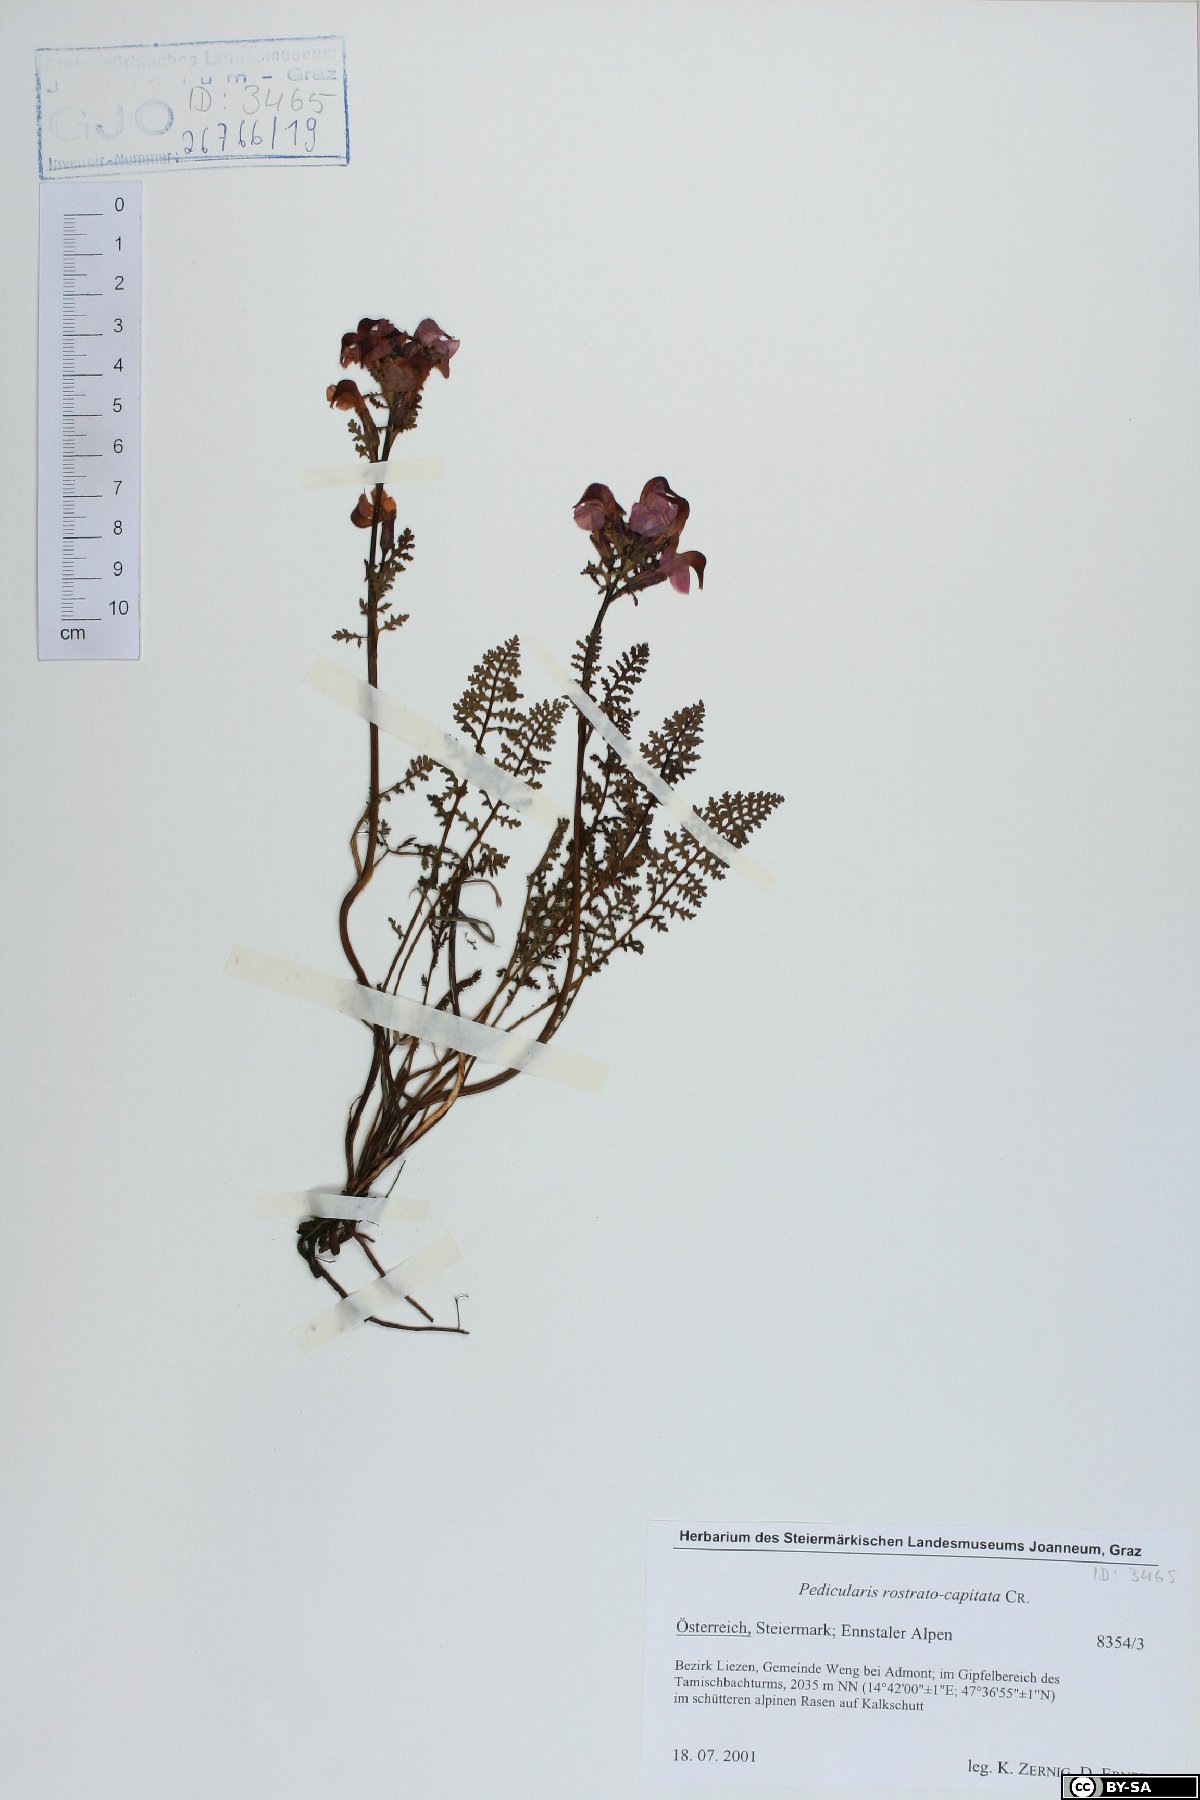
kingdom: Plantae
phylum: Tracheophyta
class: Magnoliopsida
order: Lamiales
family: Orobanchaceae
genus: Pedicularis
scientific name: Pedicularis rostratocapitata
